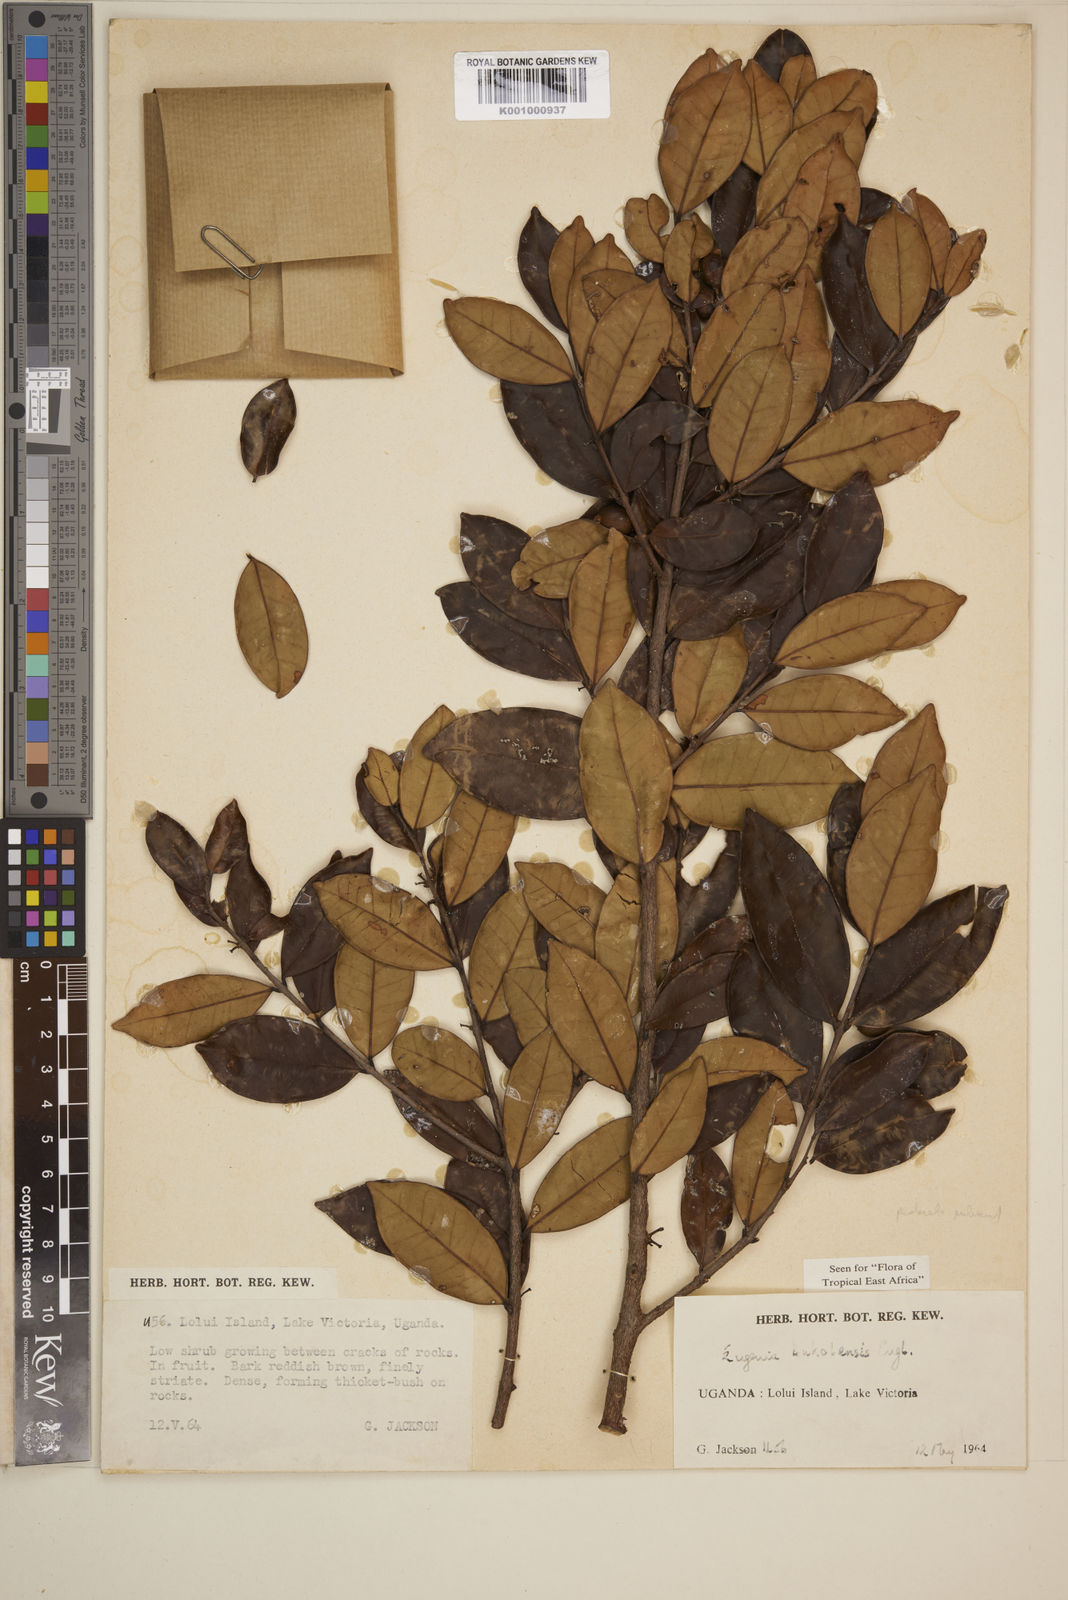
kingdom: Plantae
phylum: Tracheophyta
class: Magnoliopsida
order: Myrtales
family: Myrtaceae
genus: Eugenia
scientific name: Eugenia bukobensis
